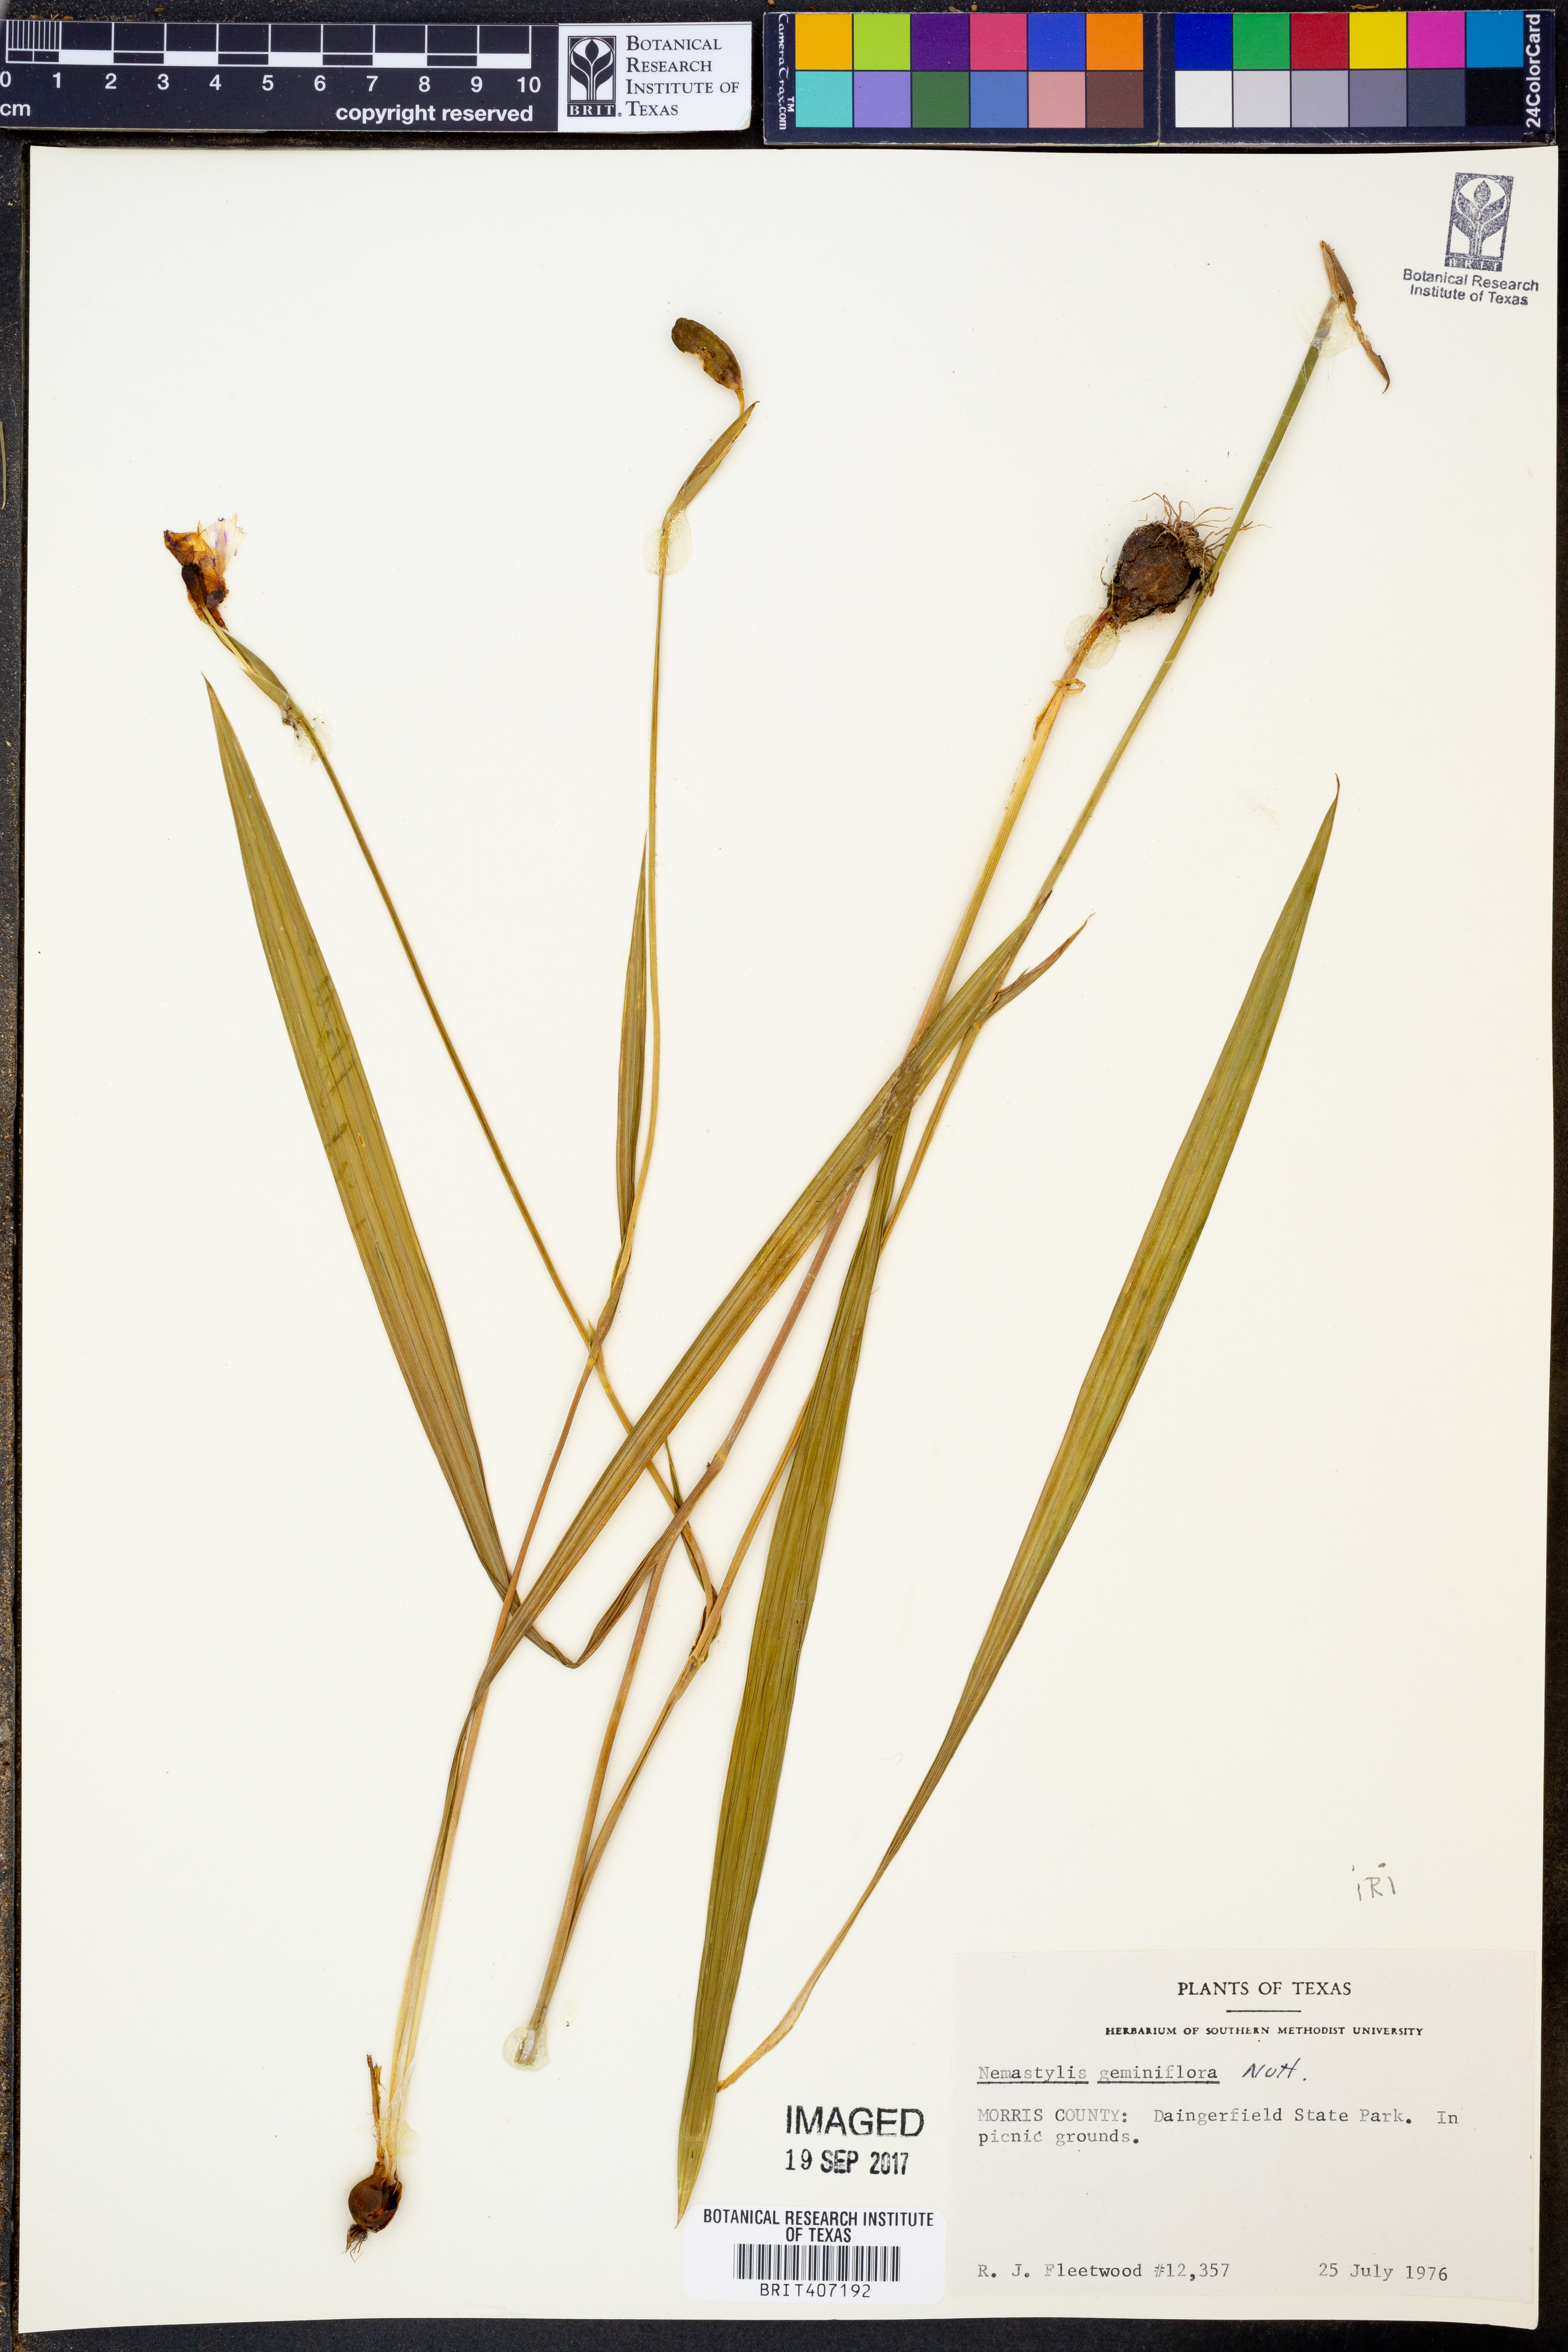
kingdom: Plantae
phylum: Tracheophyta
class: Liliopsida
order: Asparagales
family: Iridaceae
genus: Nemastylis
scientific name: Nemastylis geminiflora
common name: Prairie celestial
